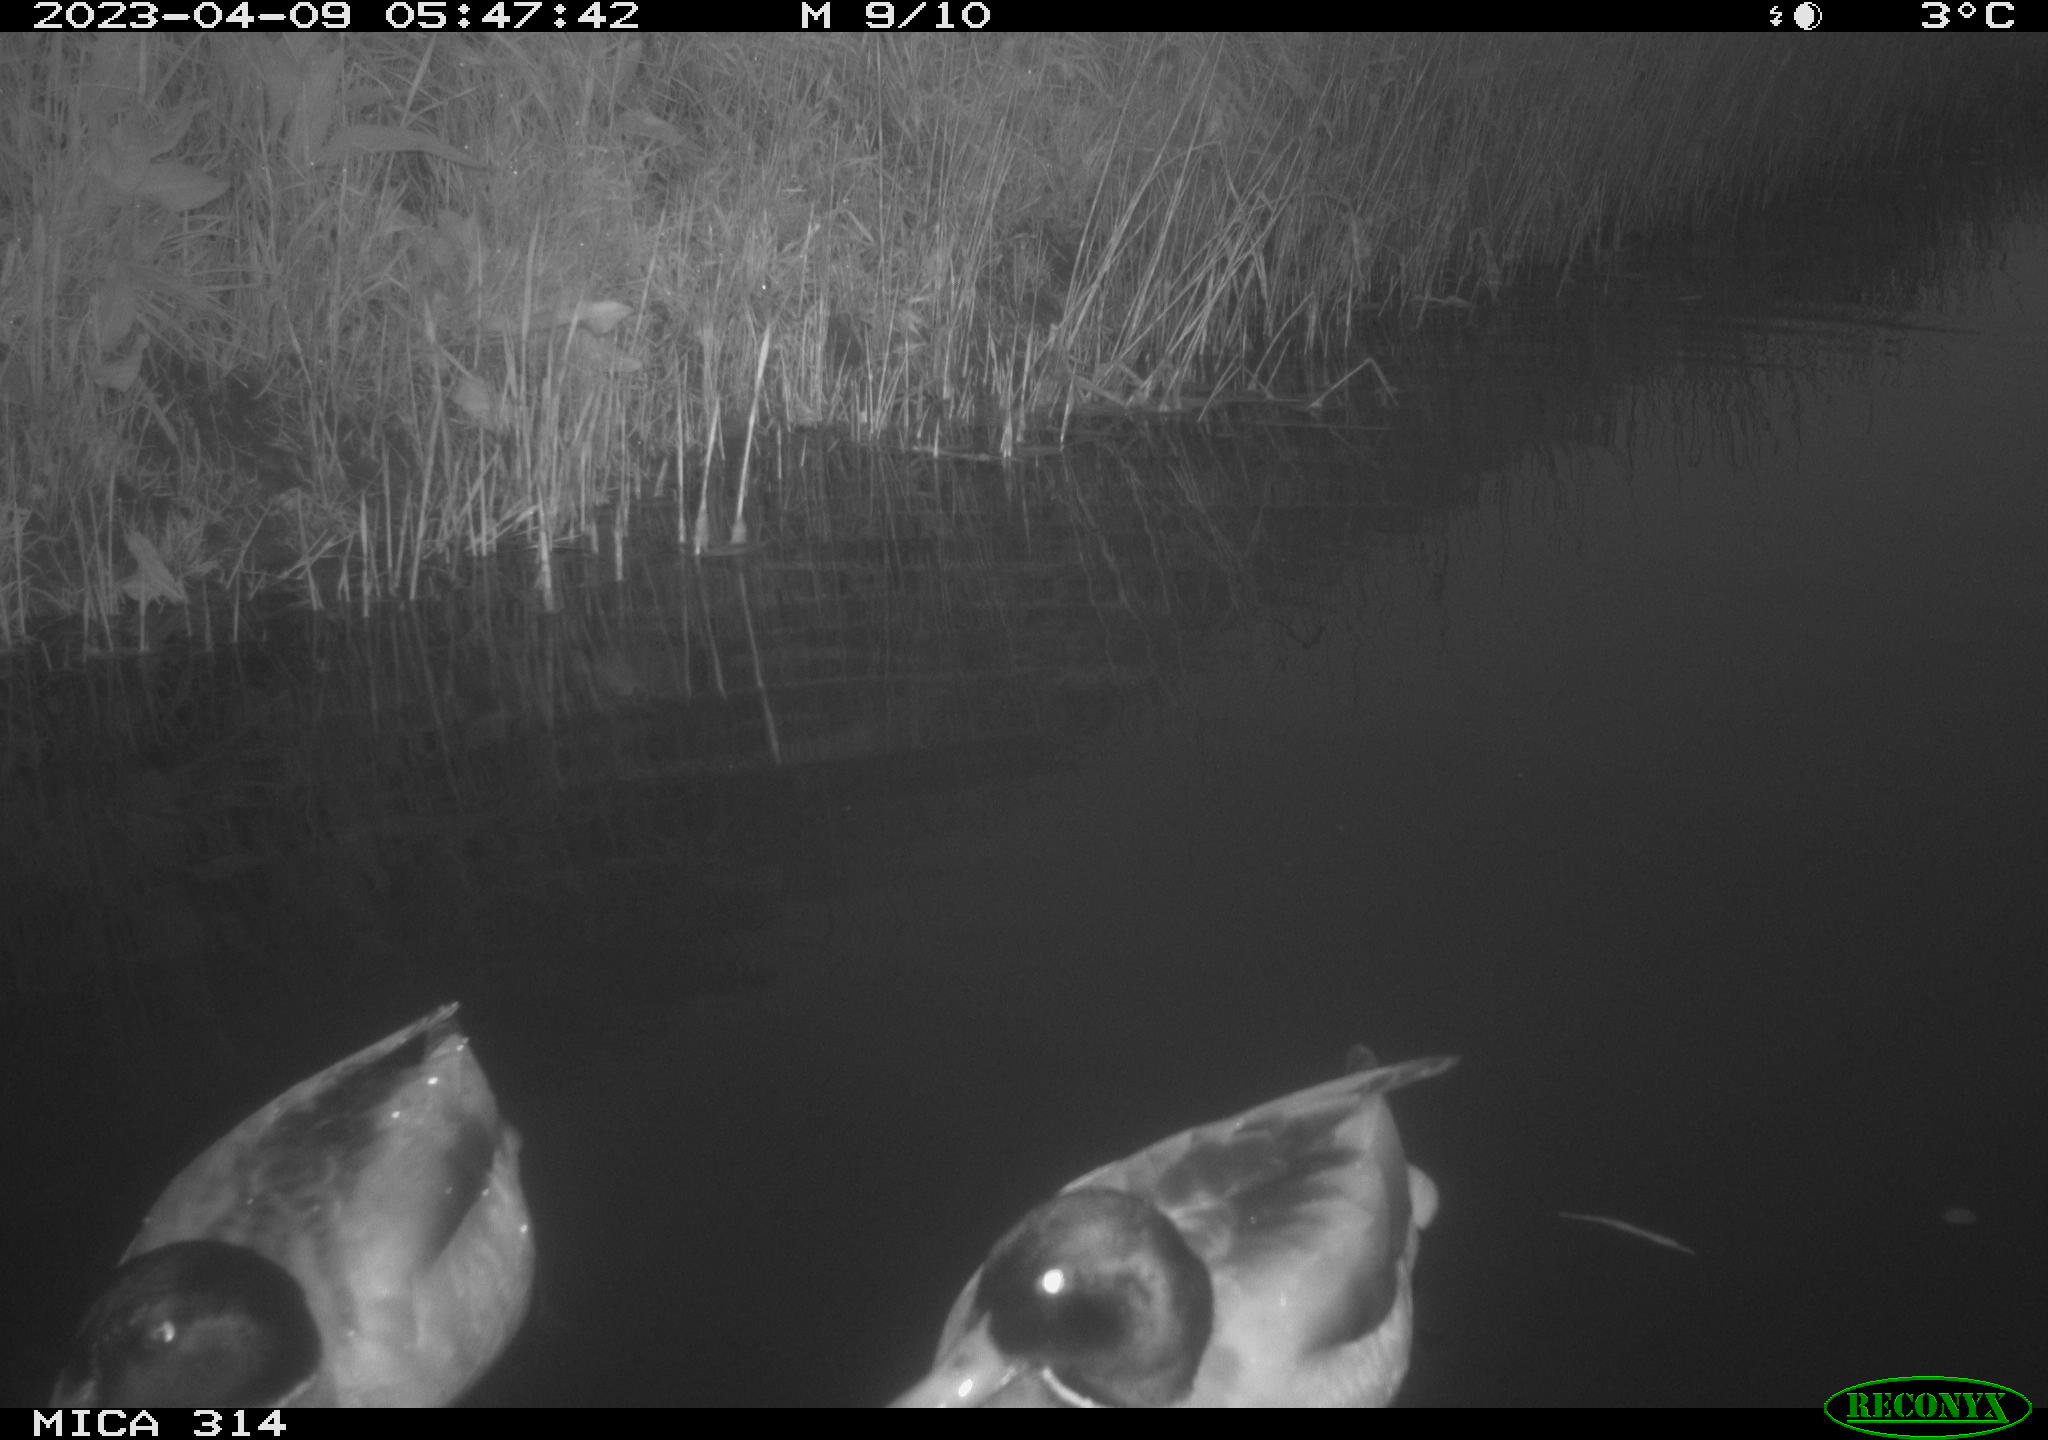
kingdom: Animalia
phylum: Chordata
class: Aves
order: Anseriformes
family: Anatidae
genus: Anas
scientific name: Anas
